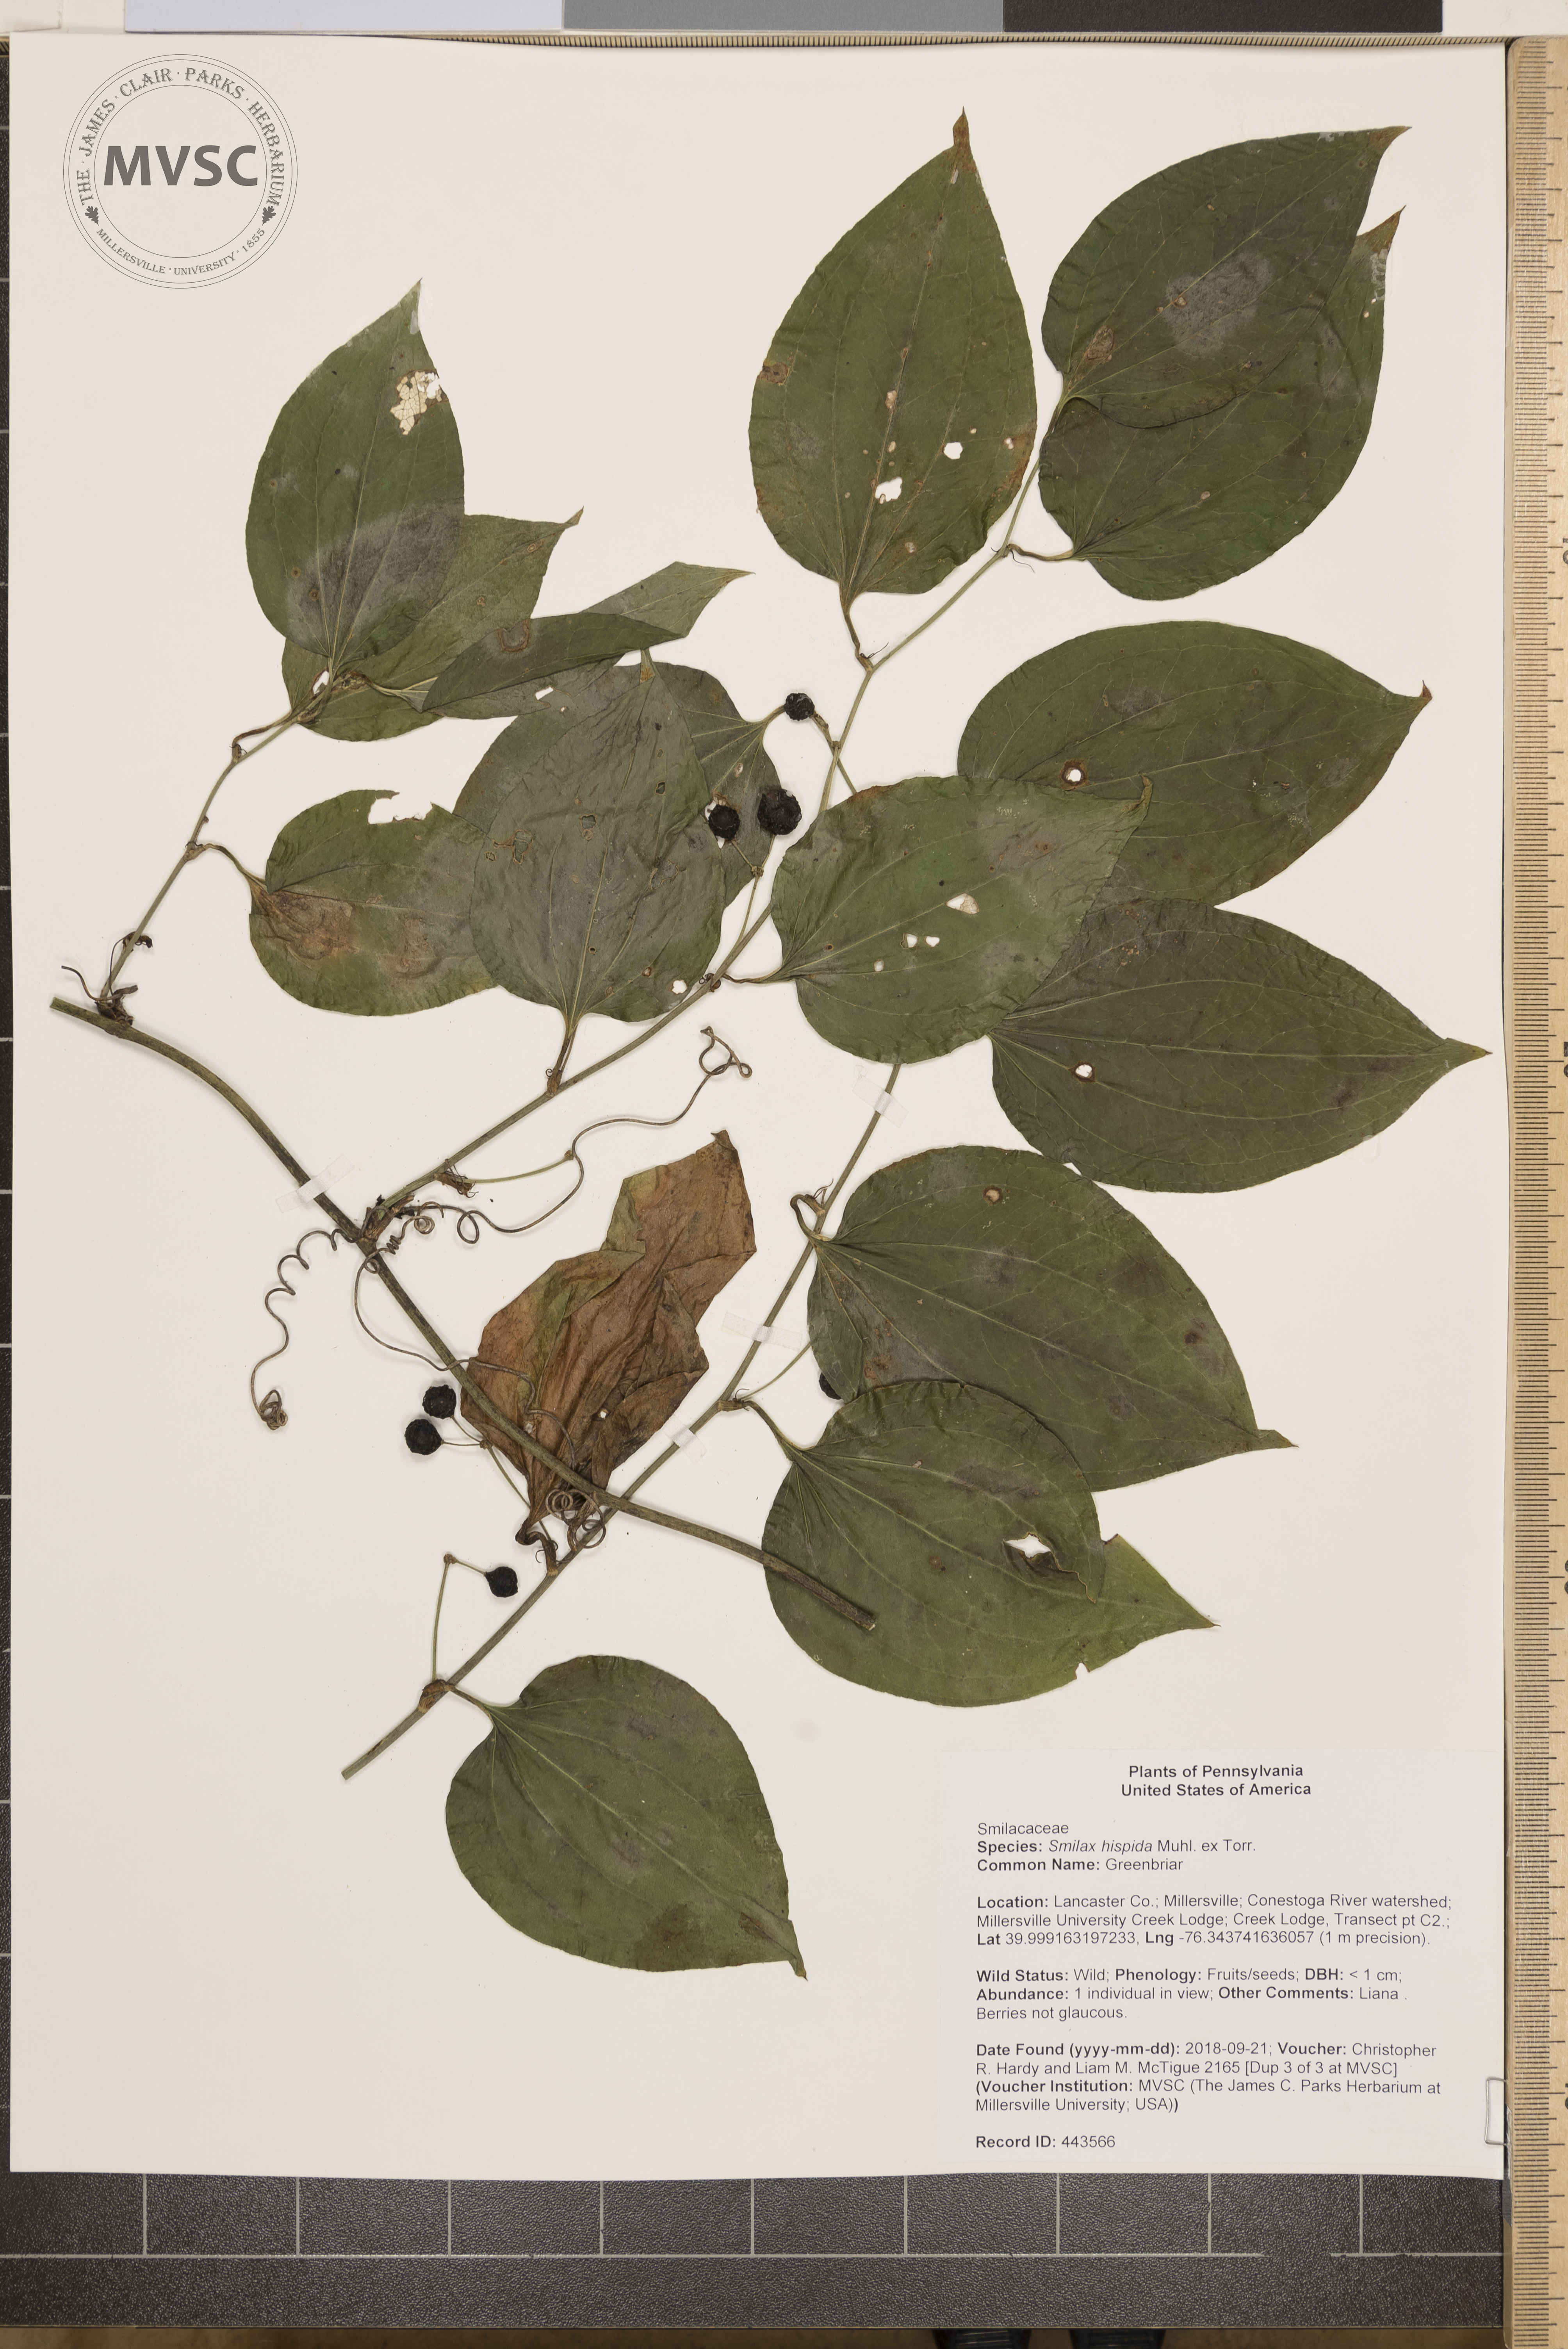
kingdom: Plantae
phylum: Tracheophyta
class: Liliopsida
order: Liliales
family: Smilacaceae
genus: Smilax
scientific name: Smilax tamnoides
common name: Greenbriar
